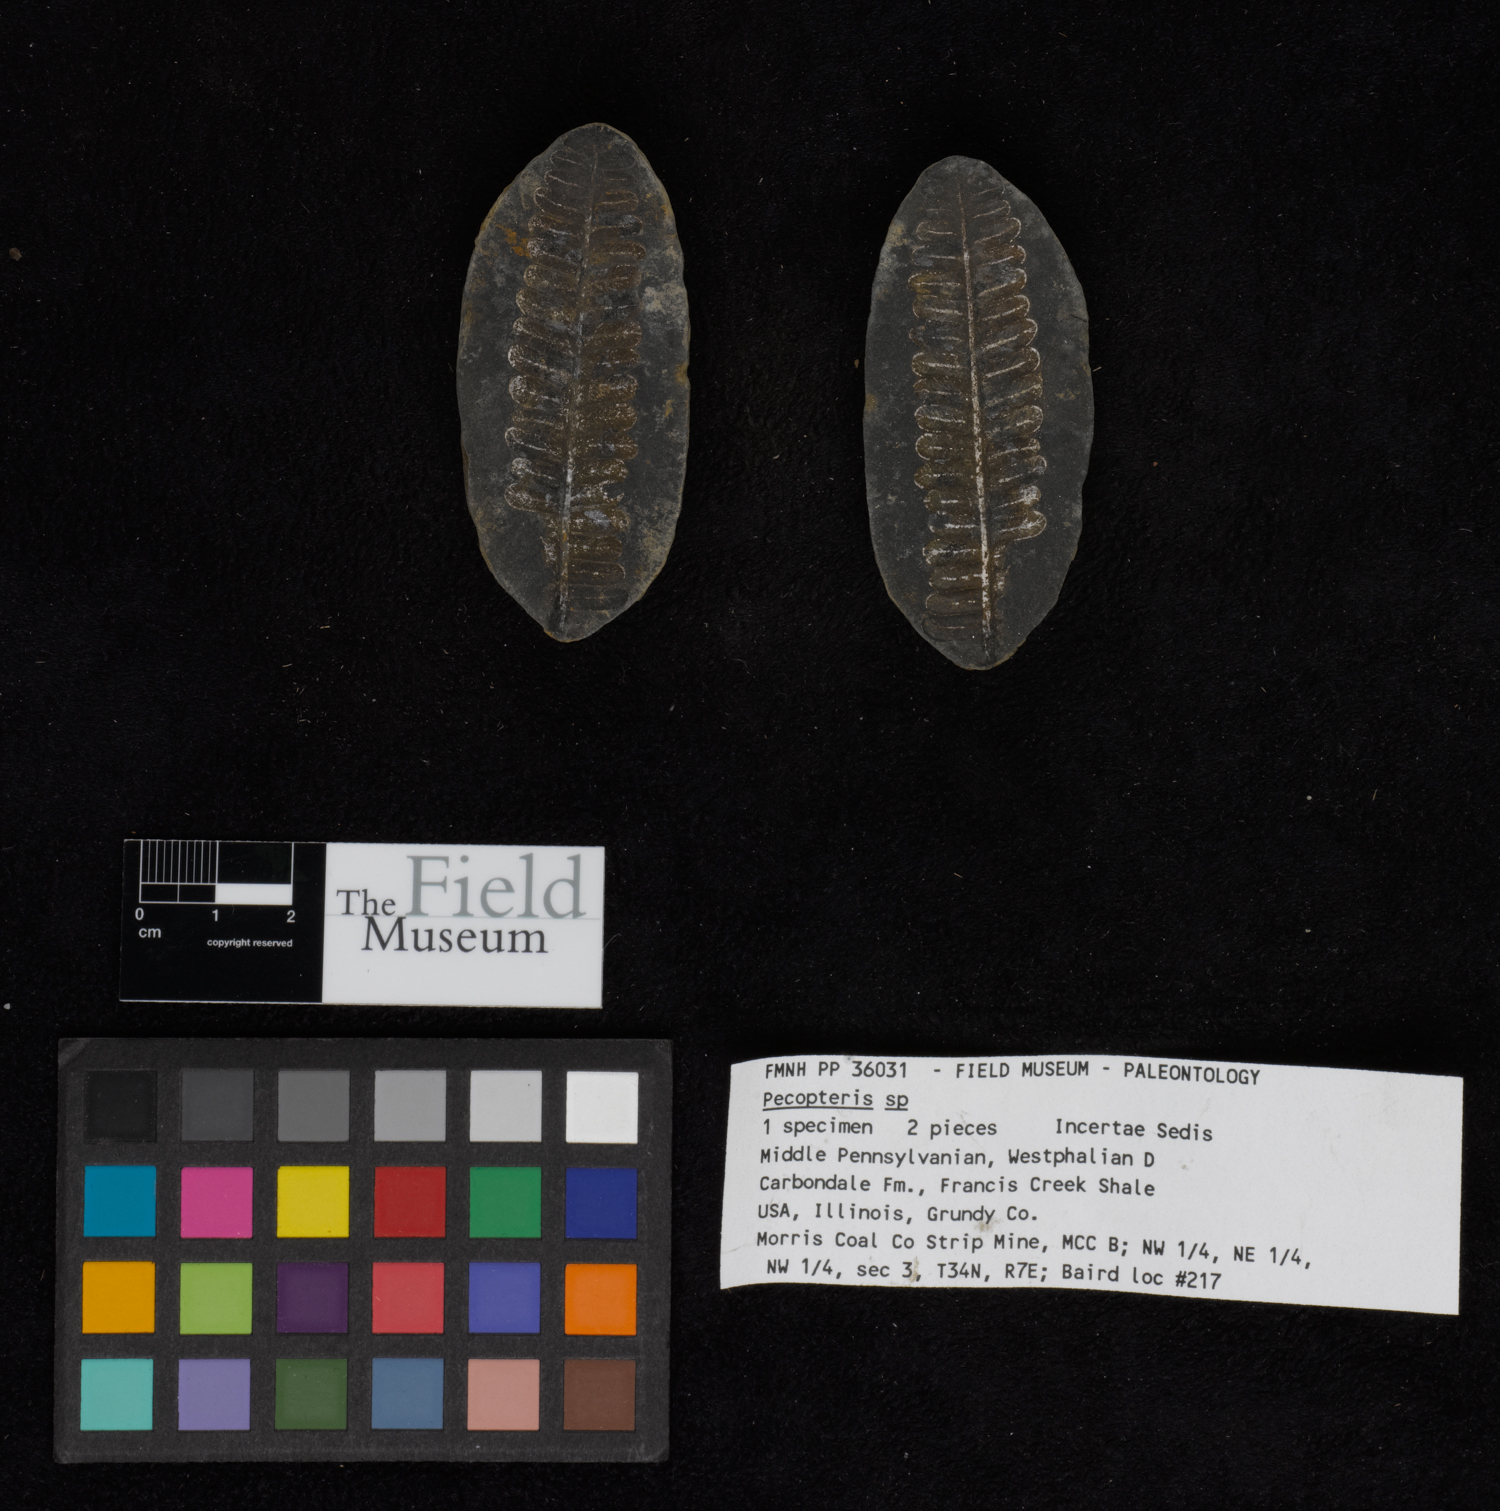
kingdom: Plantae
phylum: Tracheophyta
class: Polypodiopsida
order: Marattiales
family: Asterothecaceae
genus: Pecopteris
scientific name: Pecopteris
